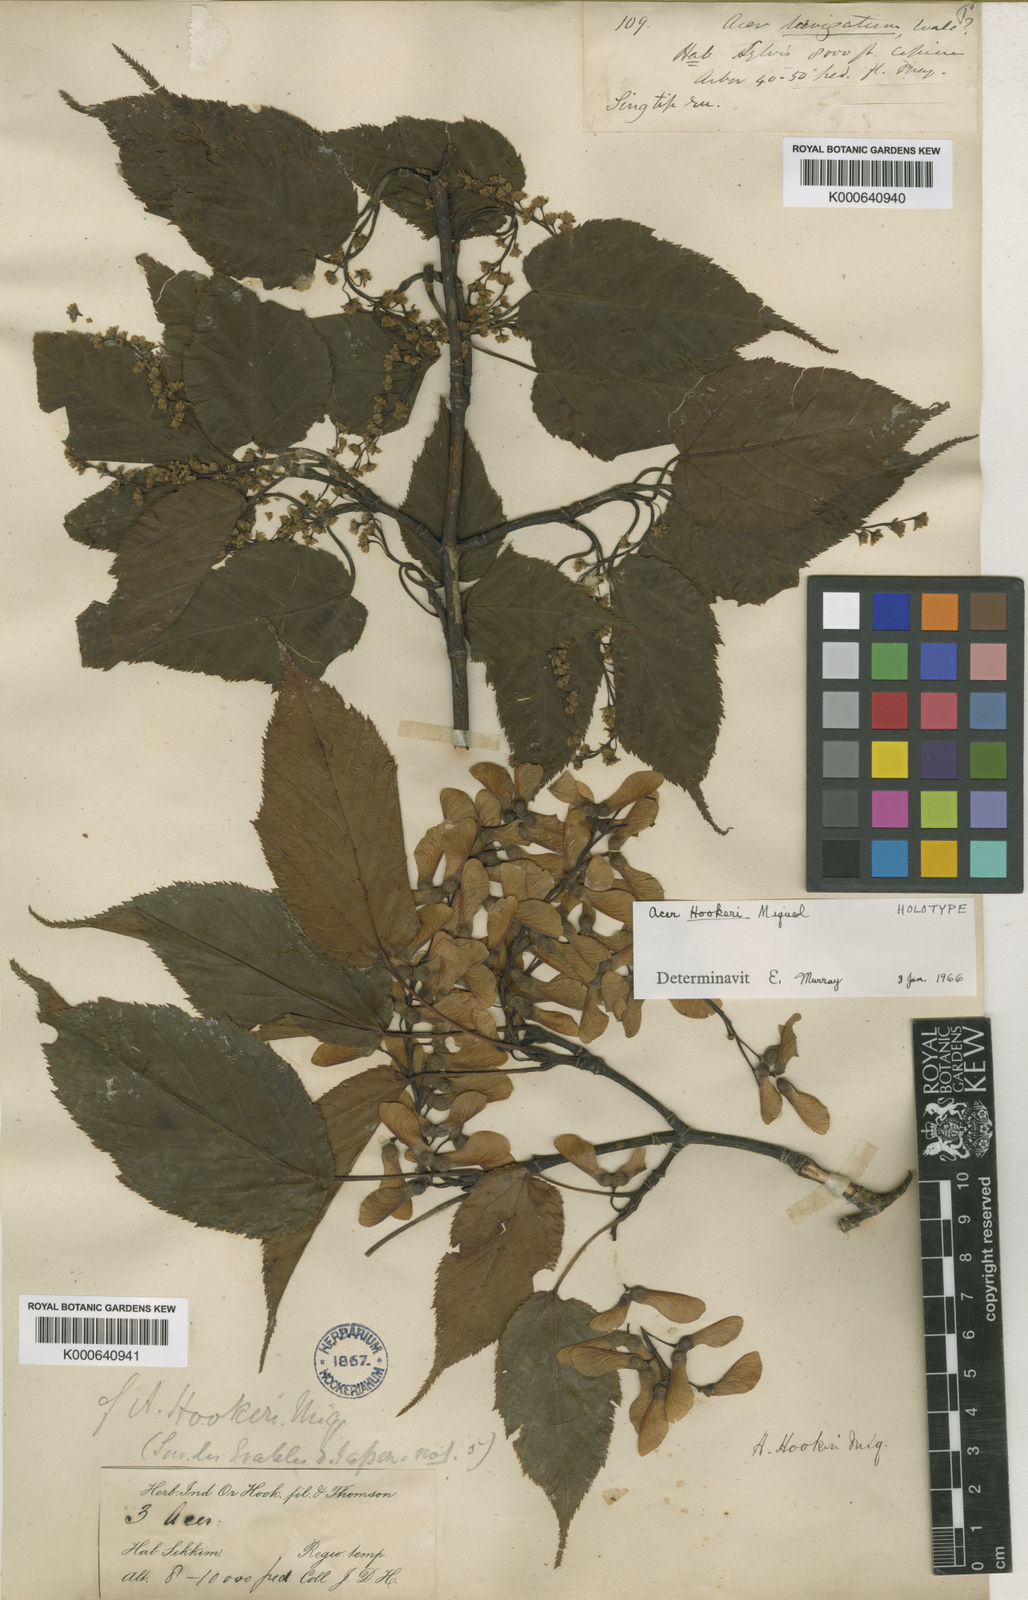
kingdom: Plantae
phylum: Tracheophyta
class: Magnoliopsida
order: Sapindales
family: Sapindaceae
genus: Acer
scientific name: Acer sikkimense
